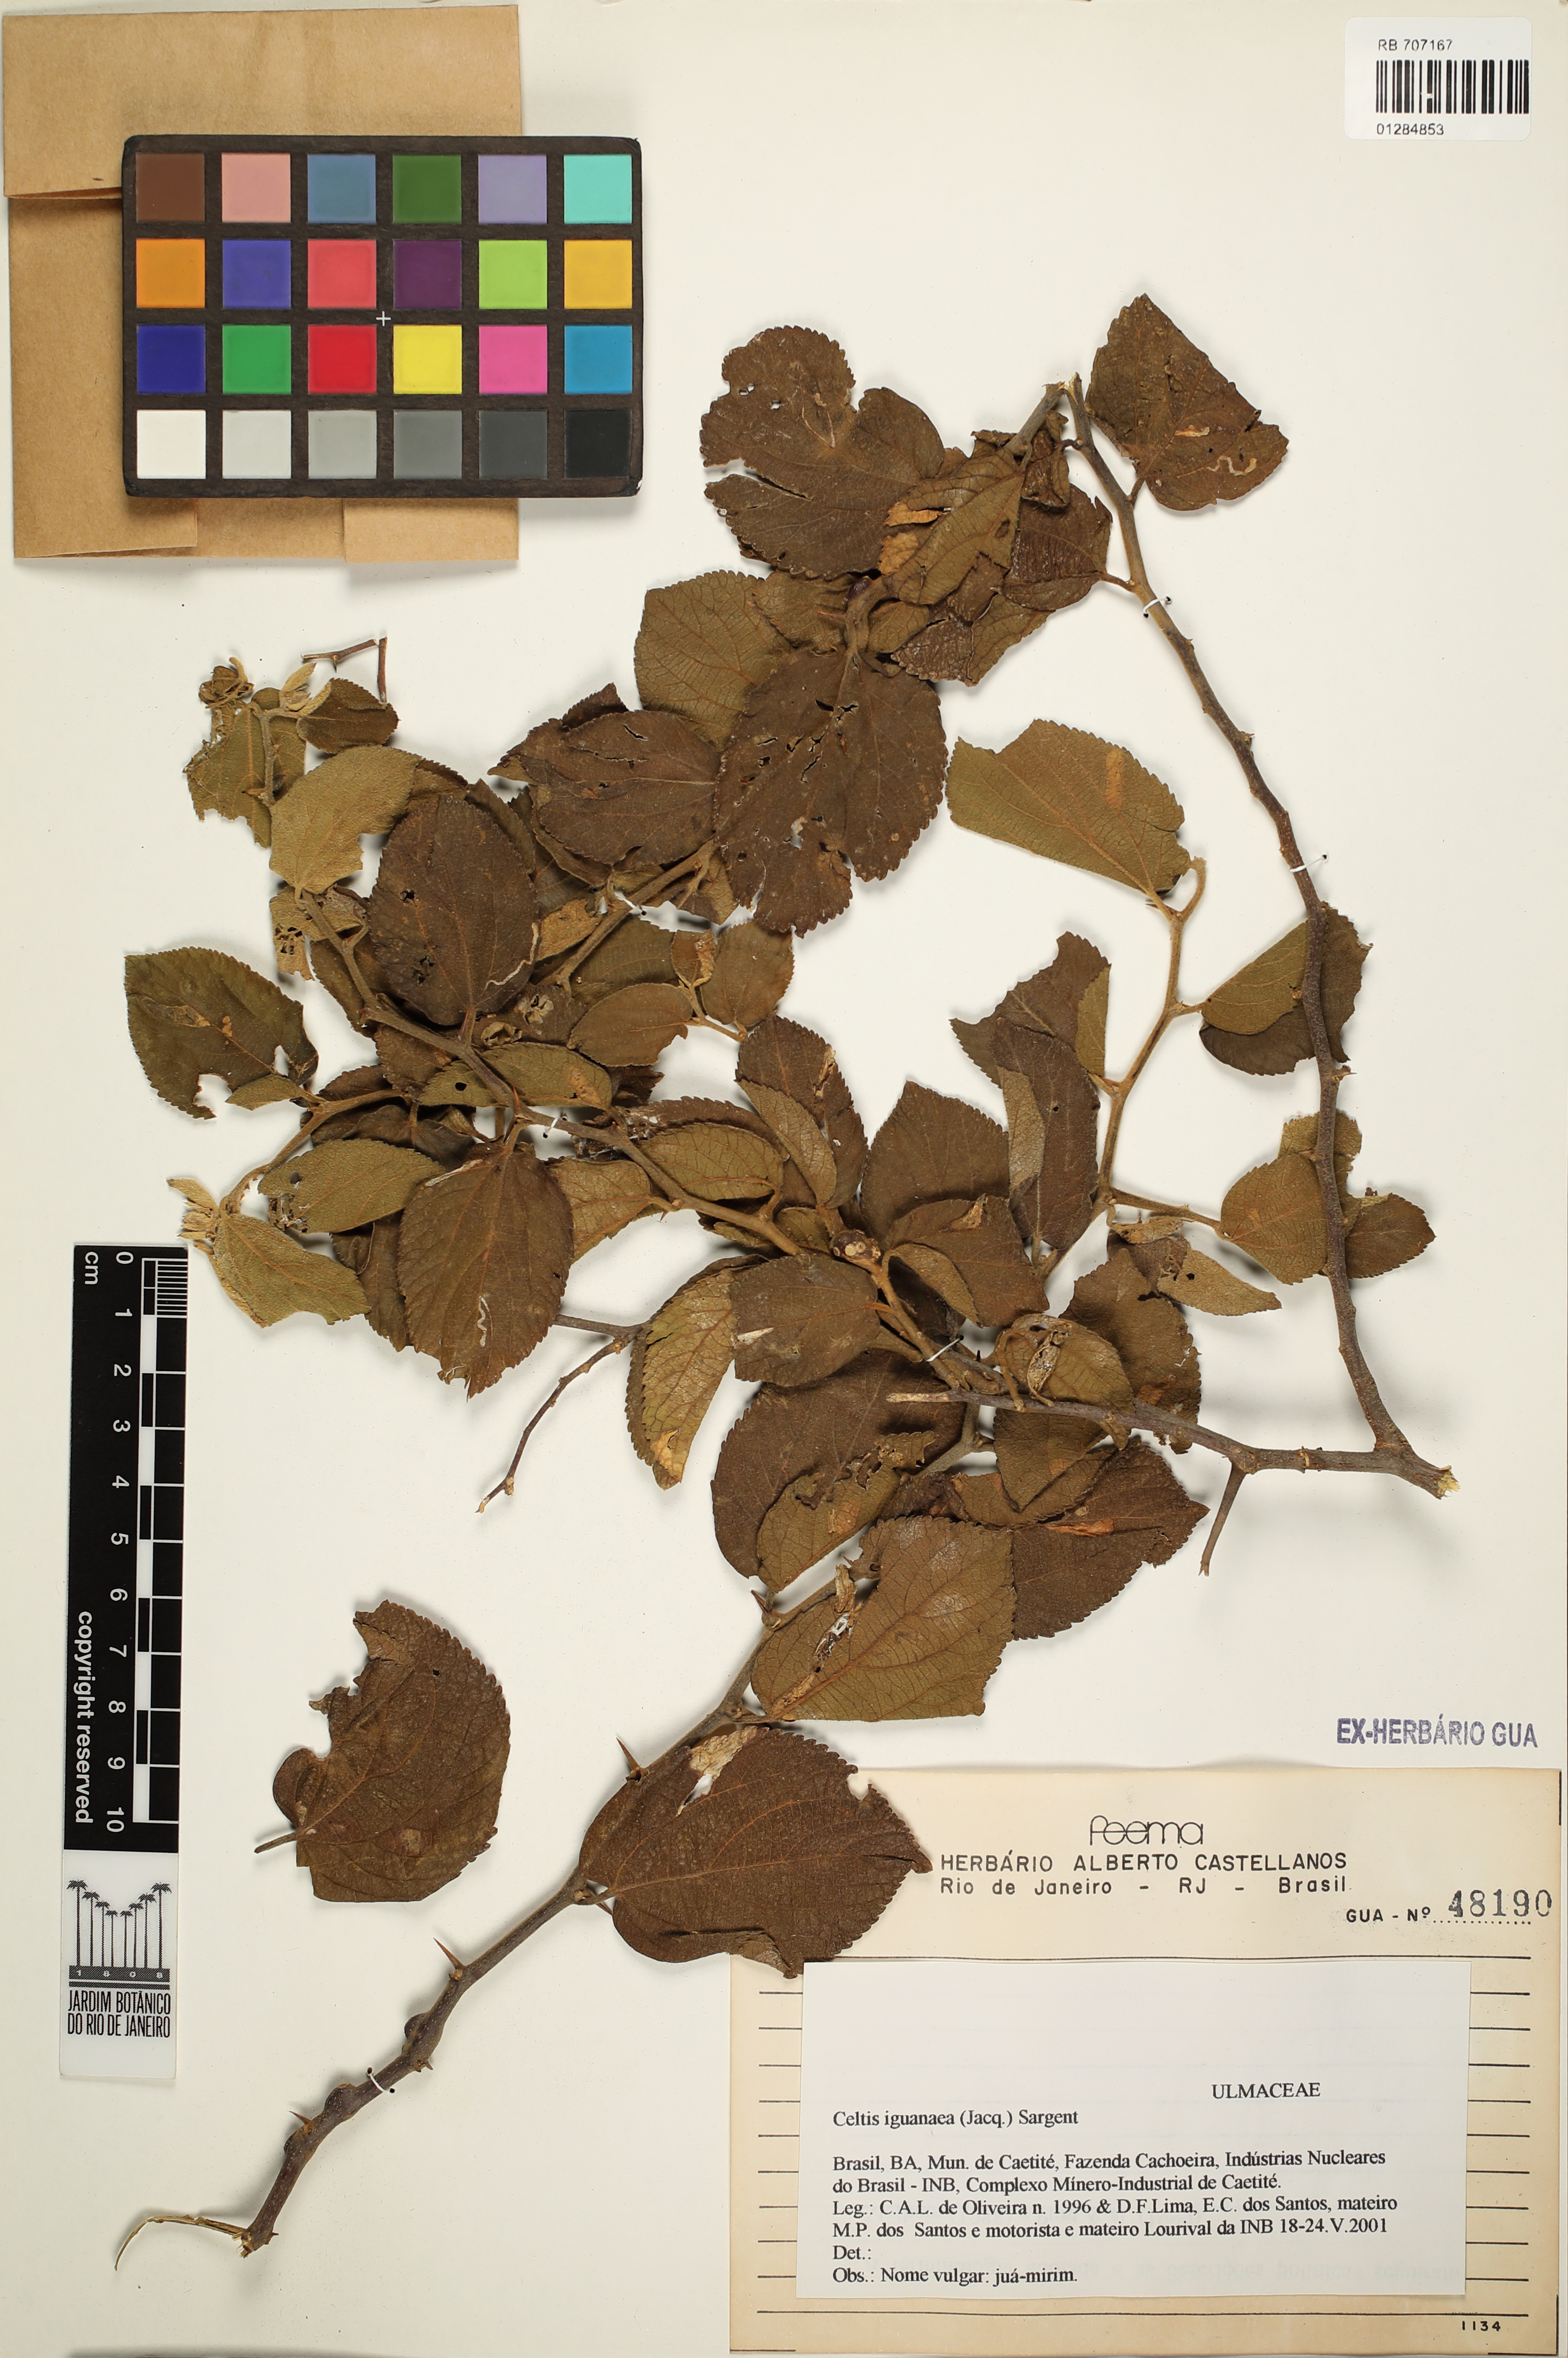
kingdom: Plantae
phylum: Tracheophyta
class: Magnoliopsida
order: Rosales
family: Cannabaceae
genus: Celtis
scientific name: Celtis iguanaea
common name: Iguana hackberry
